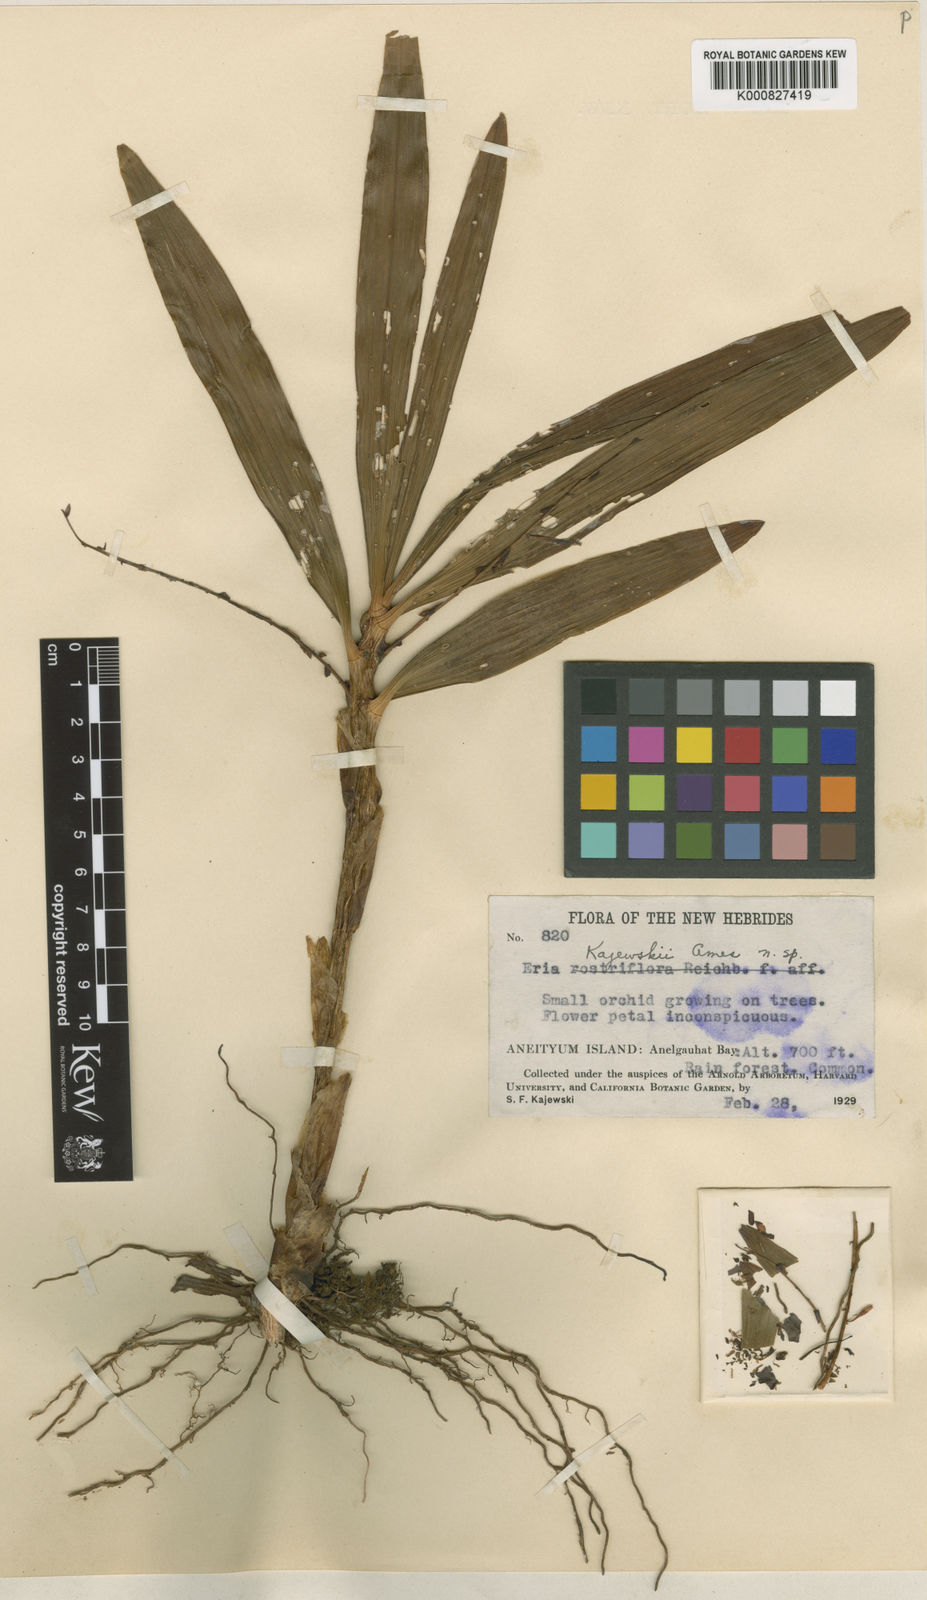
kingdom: Plantae
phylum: Tracheophyta
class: Liliopsida
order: Asparagales
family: Orchidaceae
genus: Eria
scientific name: Eria rostriflora
